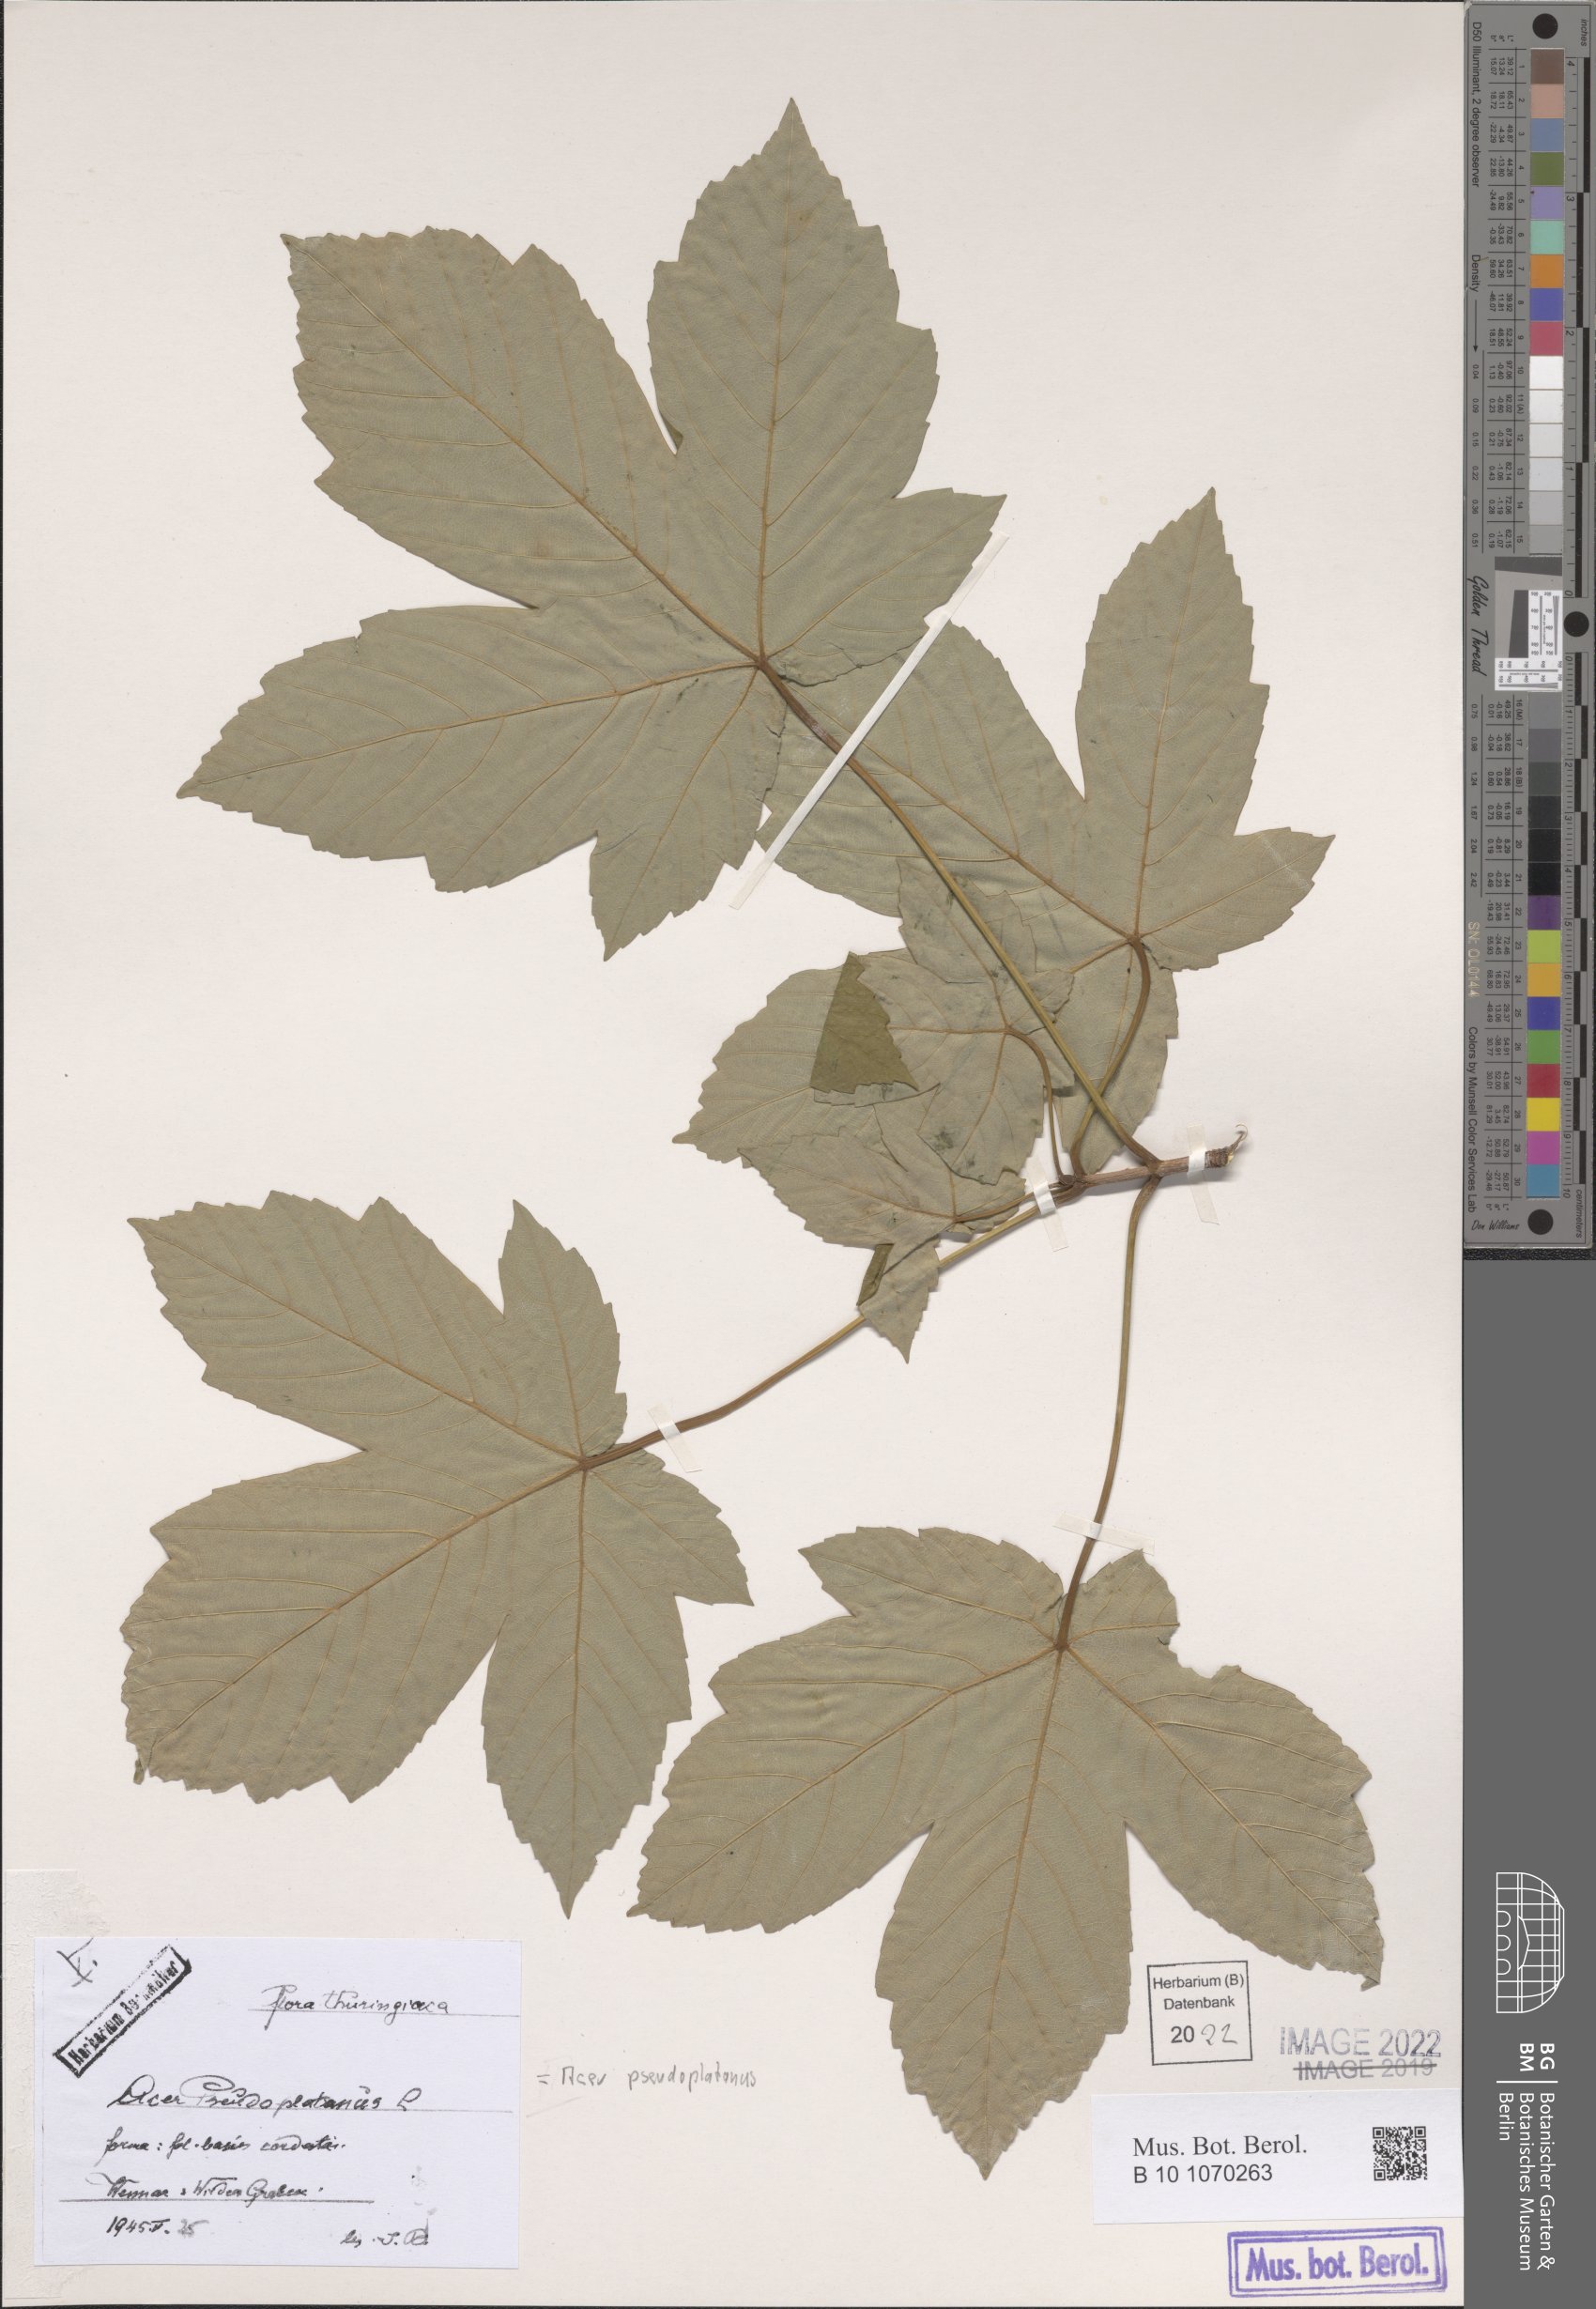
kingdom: Plantae
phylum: Tracheophyta
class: Magnoliopsida
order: Sapindales
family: Sapindaceae
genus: Acer
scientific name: Acer pseudoplatanus
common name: Sycamore
